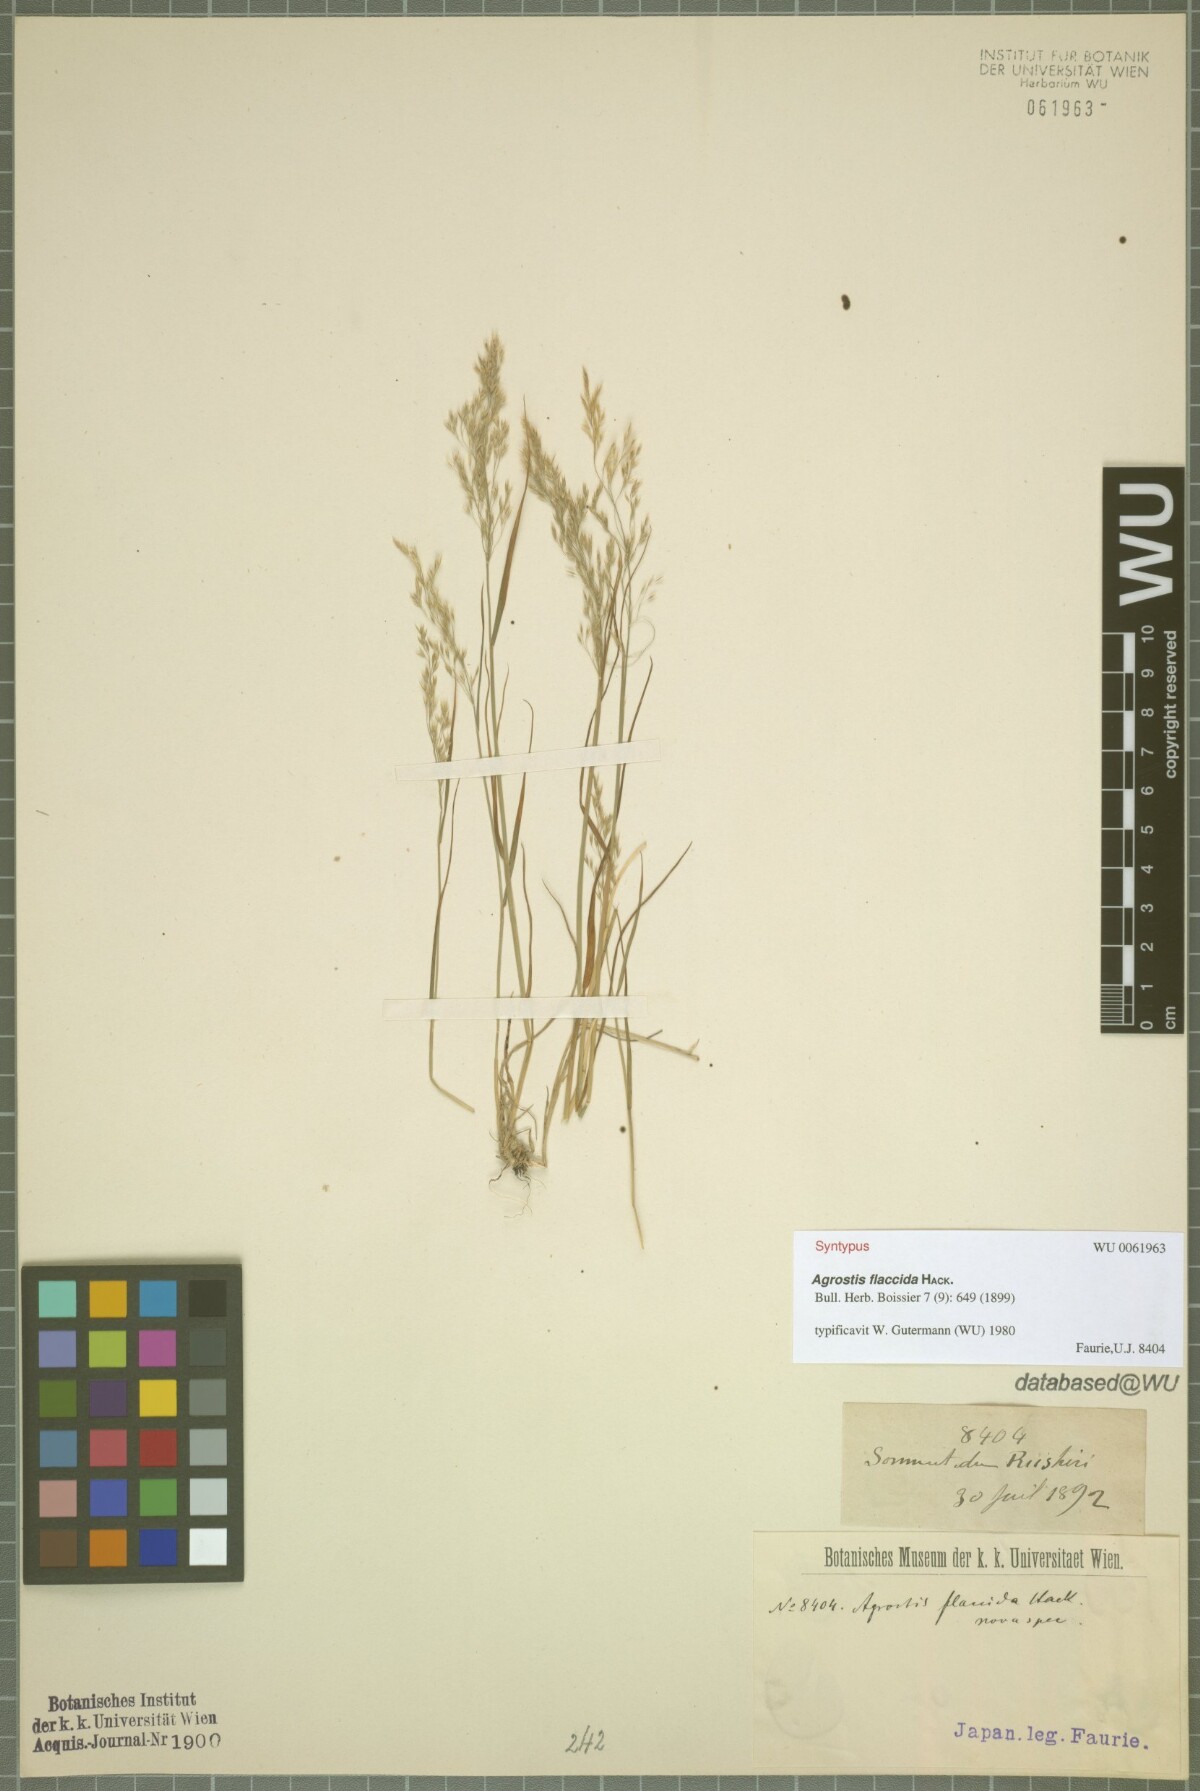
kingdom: Plantae
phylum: Tracheophyta
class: Liliopsida
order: Poales
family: Poaceae
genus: Agrostis
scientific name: Agrostis flaccida
